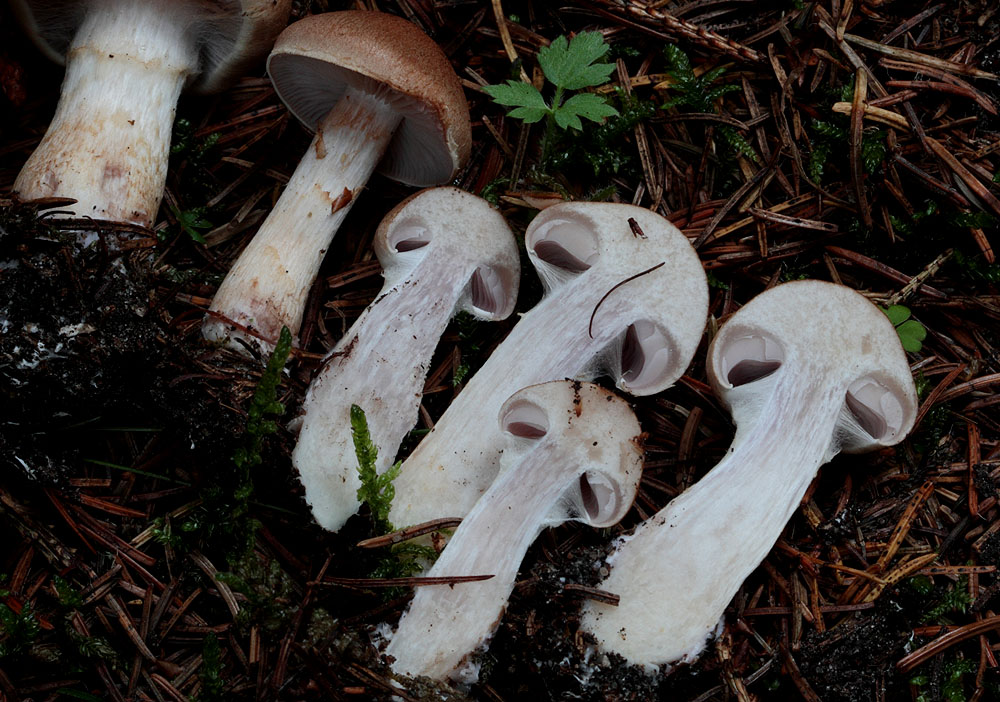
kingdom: Fungi
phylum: Basidiomycota
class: Agaricomycetes
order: Agaricales
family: Cortinariaceae
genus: Cortinarius
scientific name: Cortinarius caninus
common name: gran-slørhat
